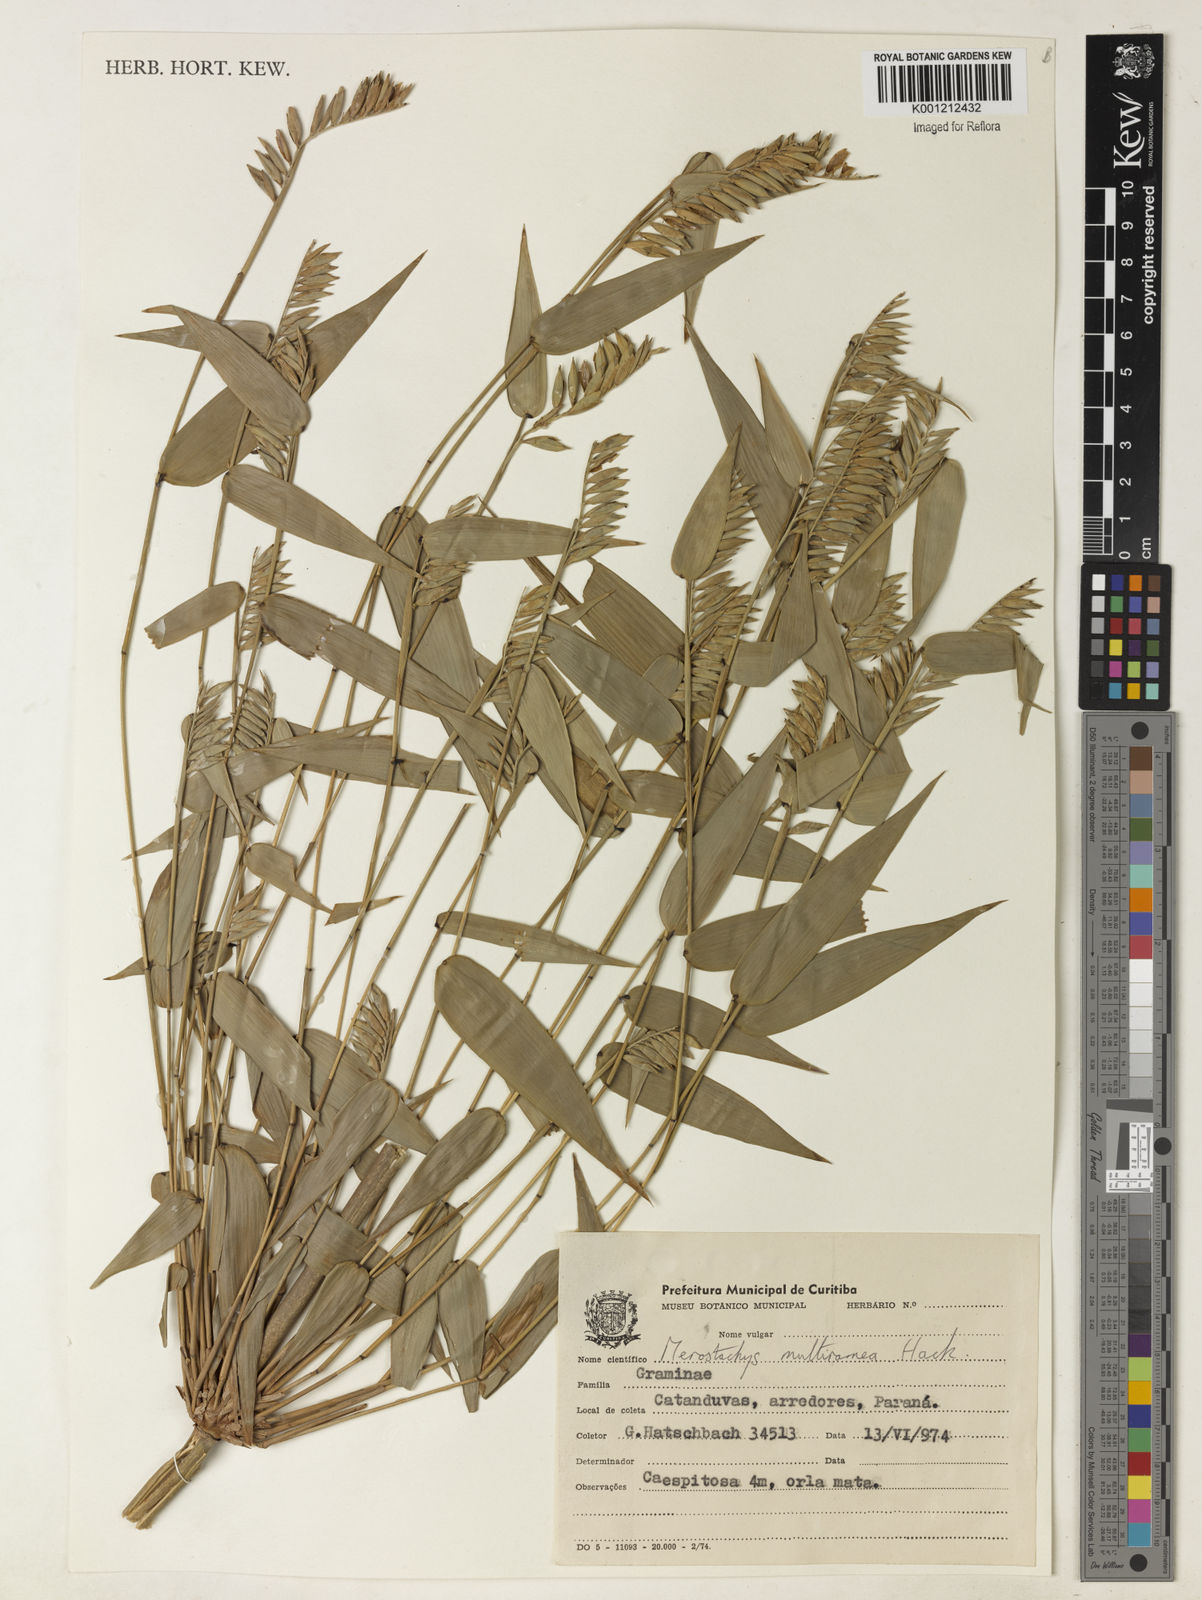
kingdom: Plantae
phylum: Tracheophyta
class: Liliopsida
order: Poales
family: Poaceae
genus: Merostachys
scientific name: Merostachys multiramea
